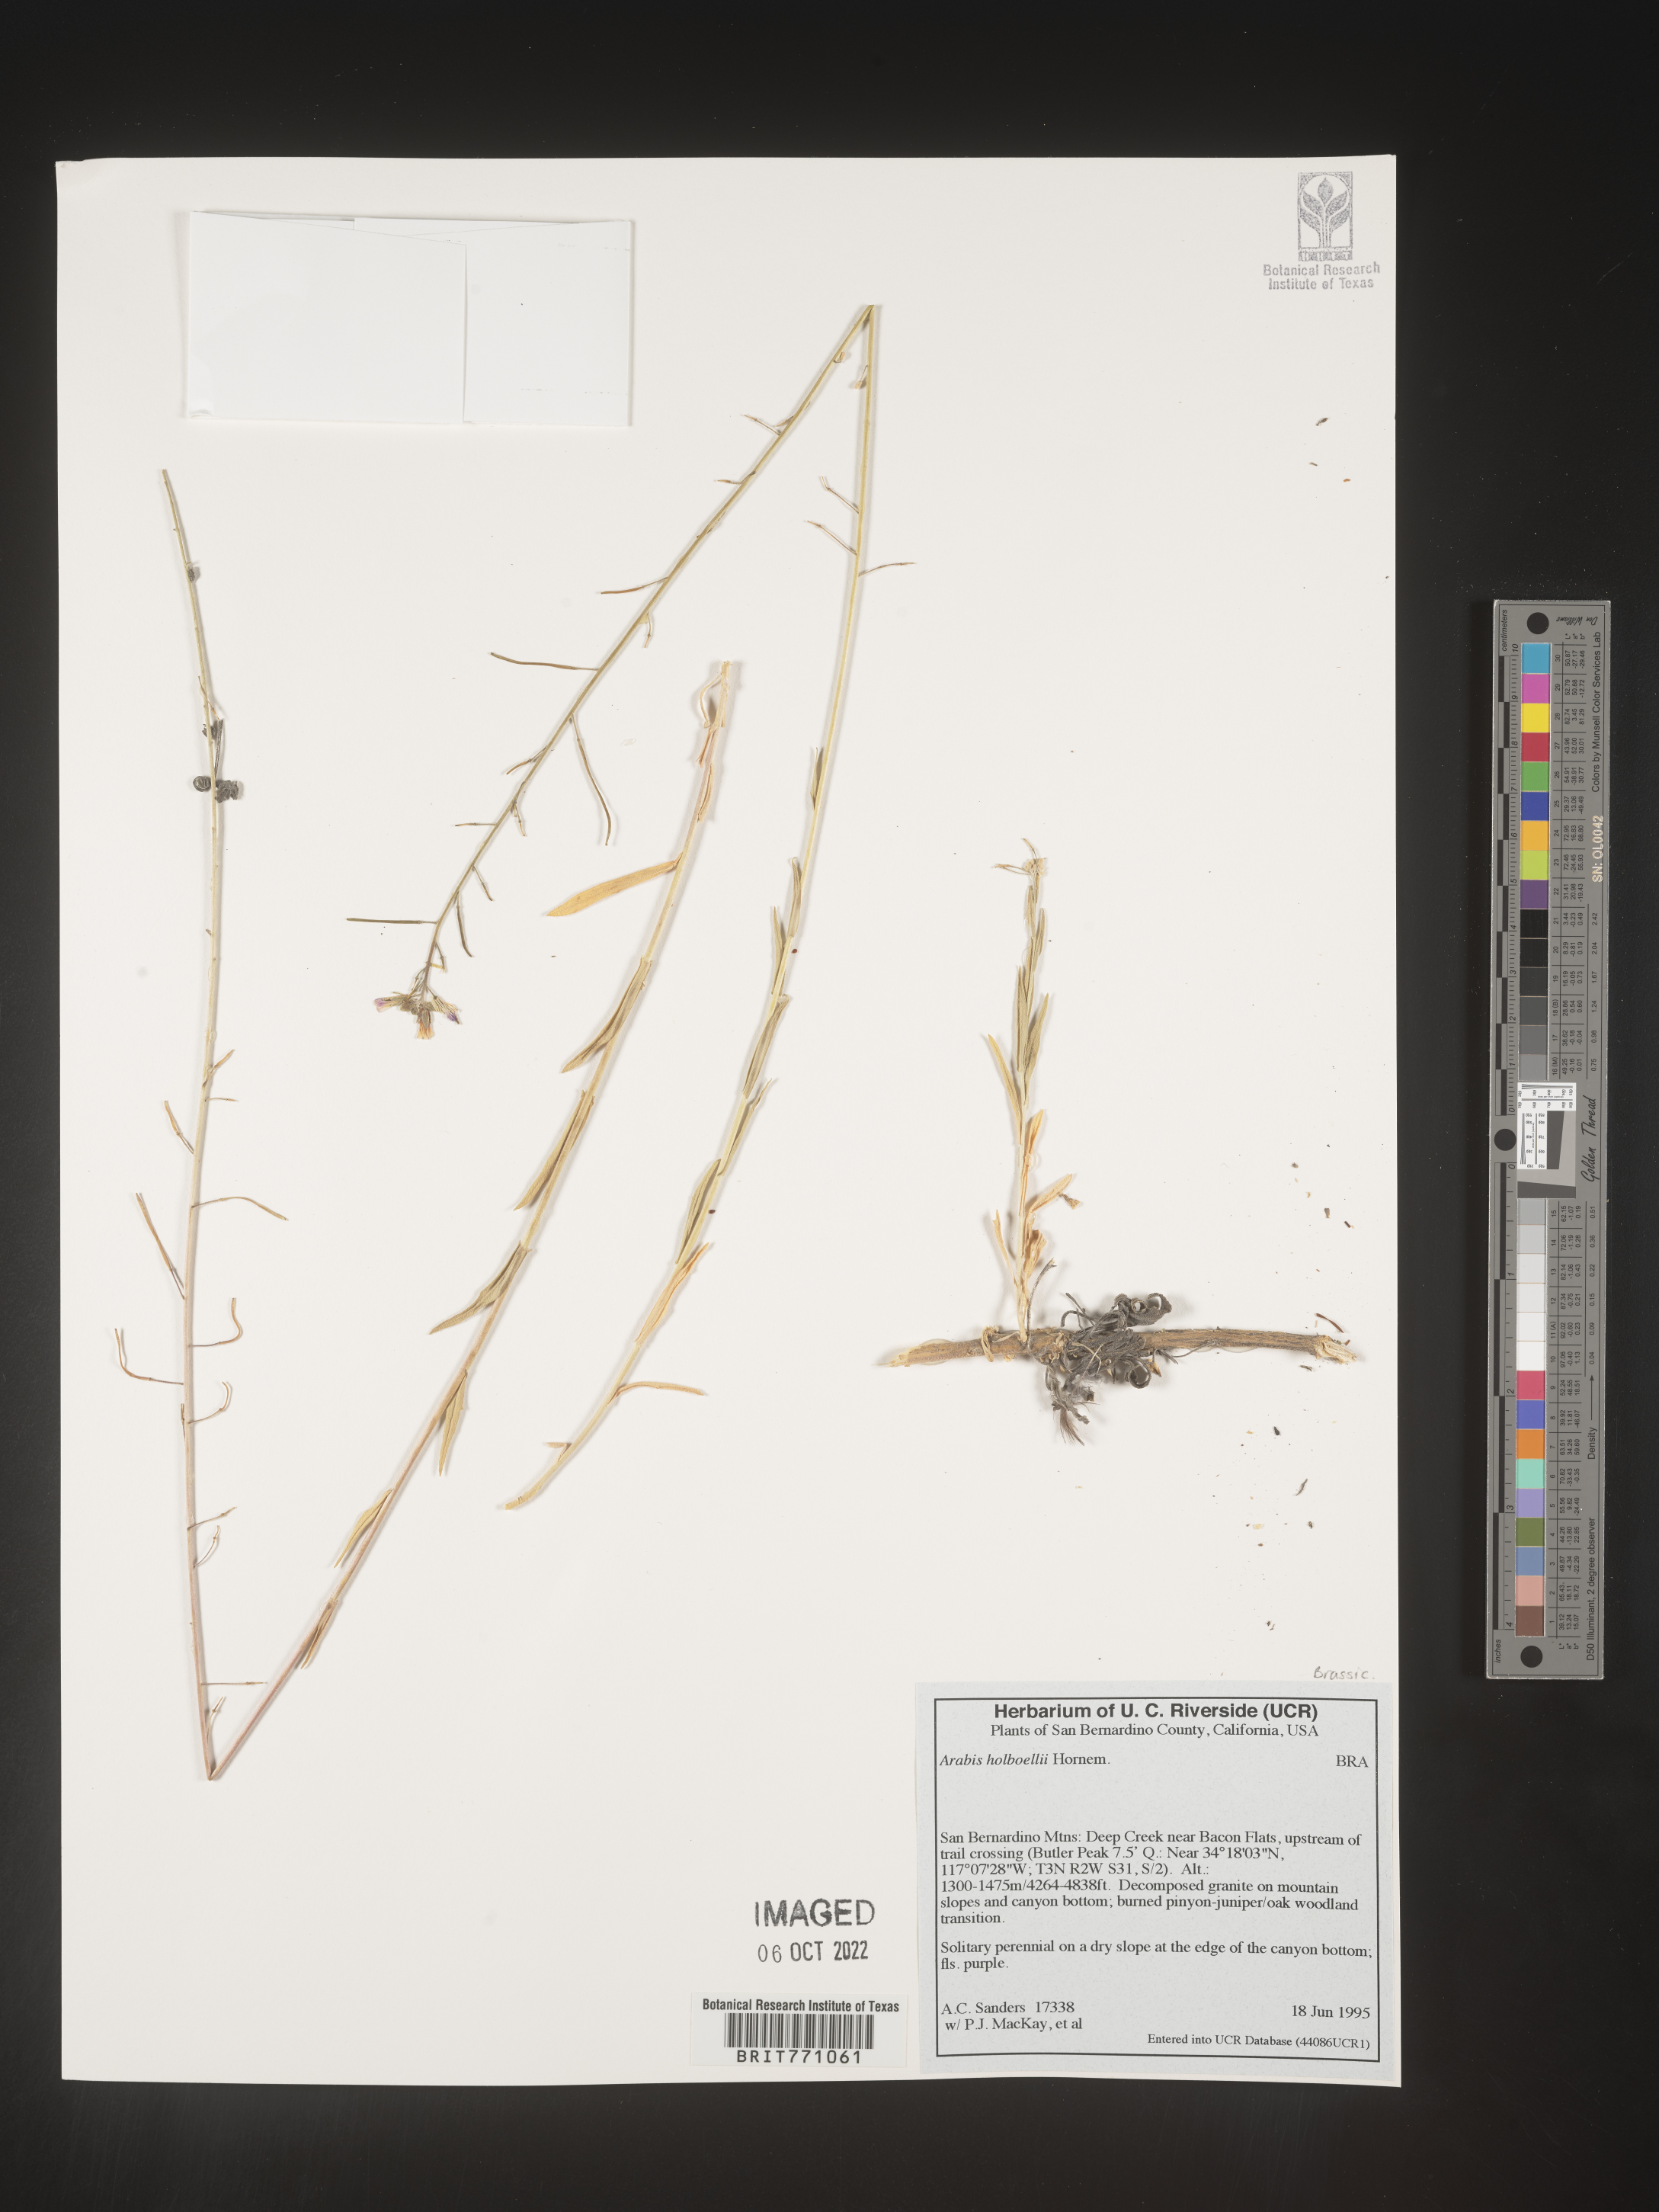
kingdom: Plantae
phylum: Tracheophyta
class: Magnoliopsida
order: Brassicales
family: Brassicaceae
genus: Boechera
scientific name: Boechera holboellii
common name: Holboell's rockcress
